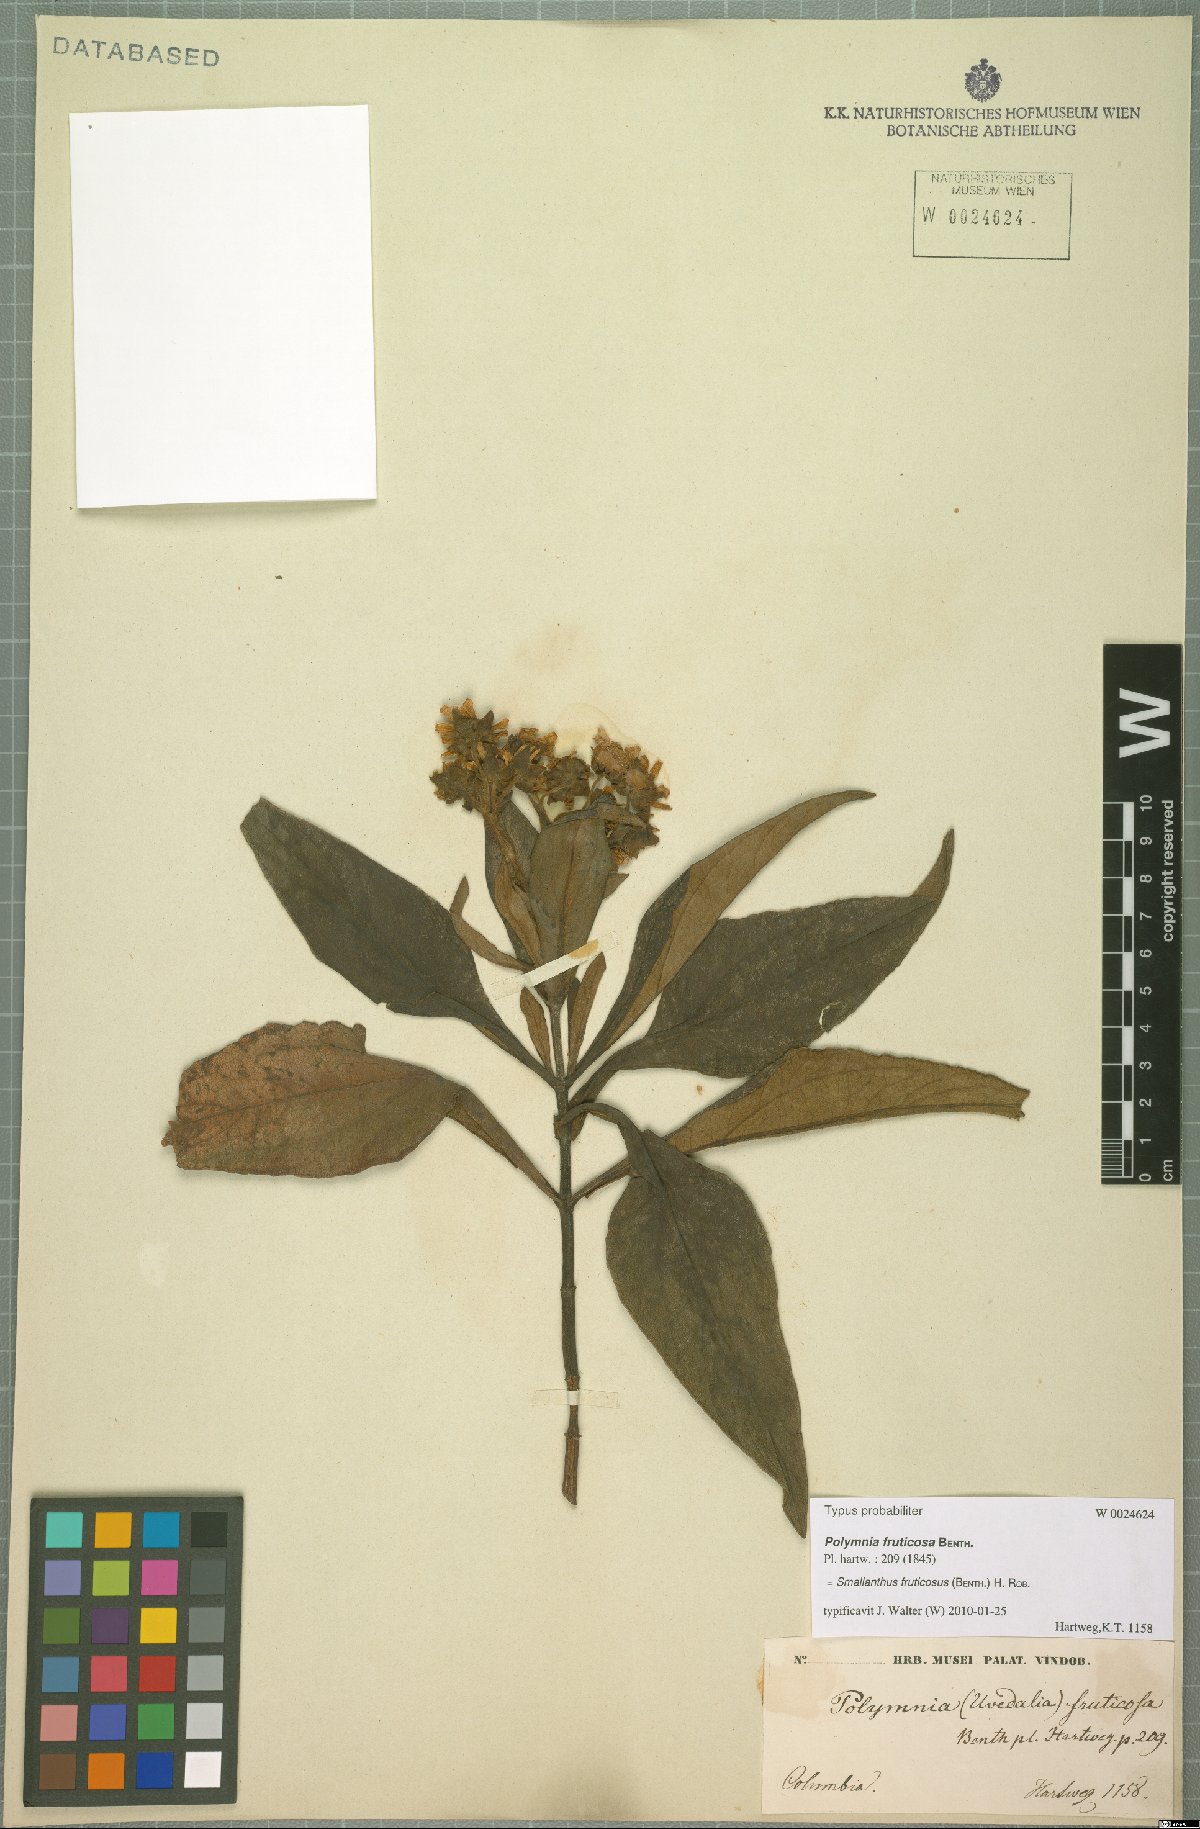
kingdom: Plantae
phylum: Tracheophyta
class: Magnoliopsida
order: Asterales
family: Asteraceae
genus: Smallanthus
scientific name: Smallanthus fruticosus
